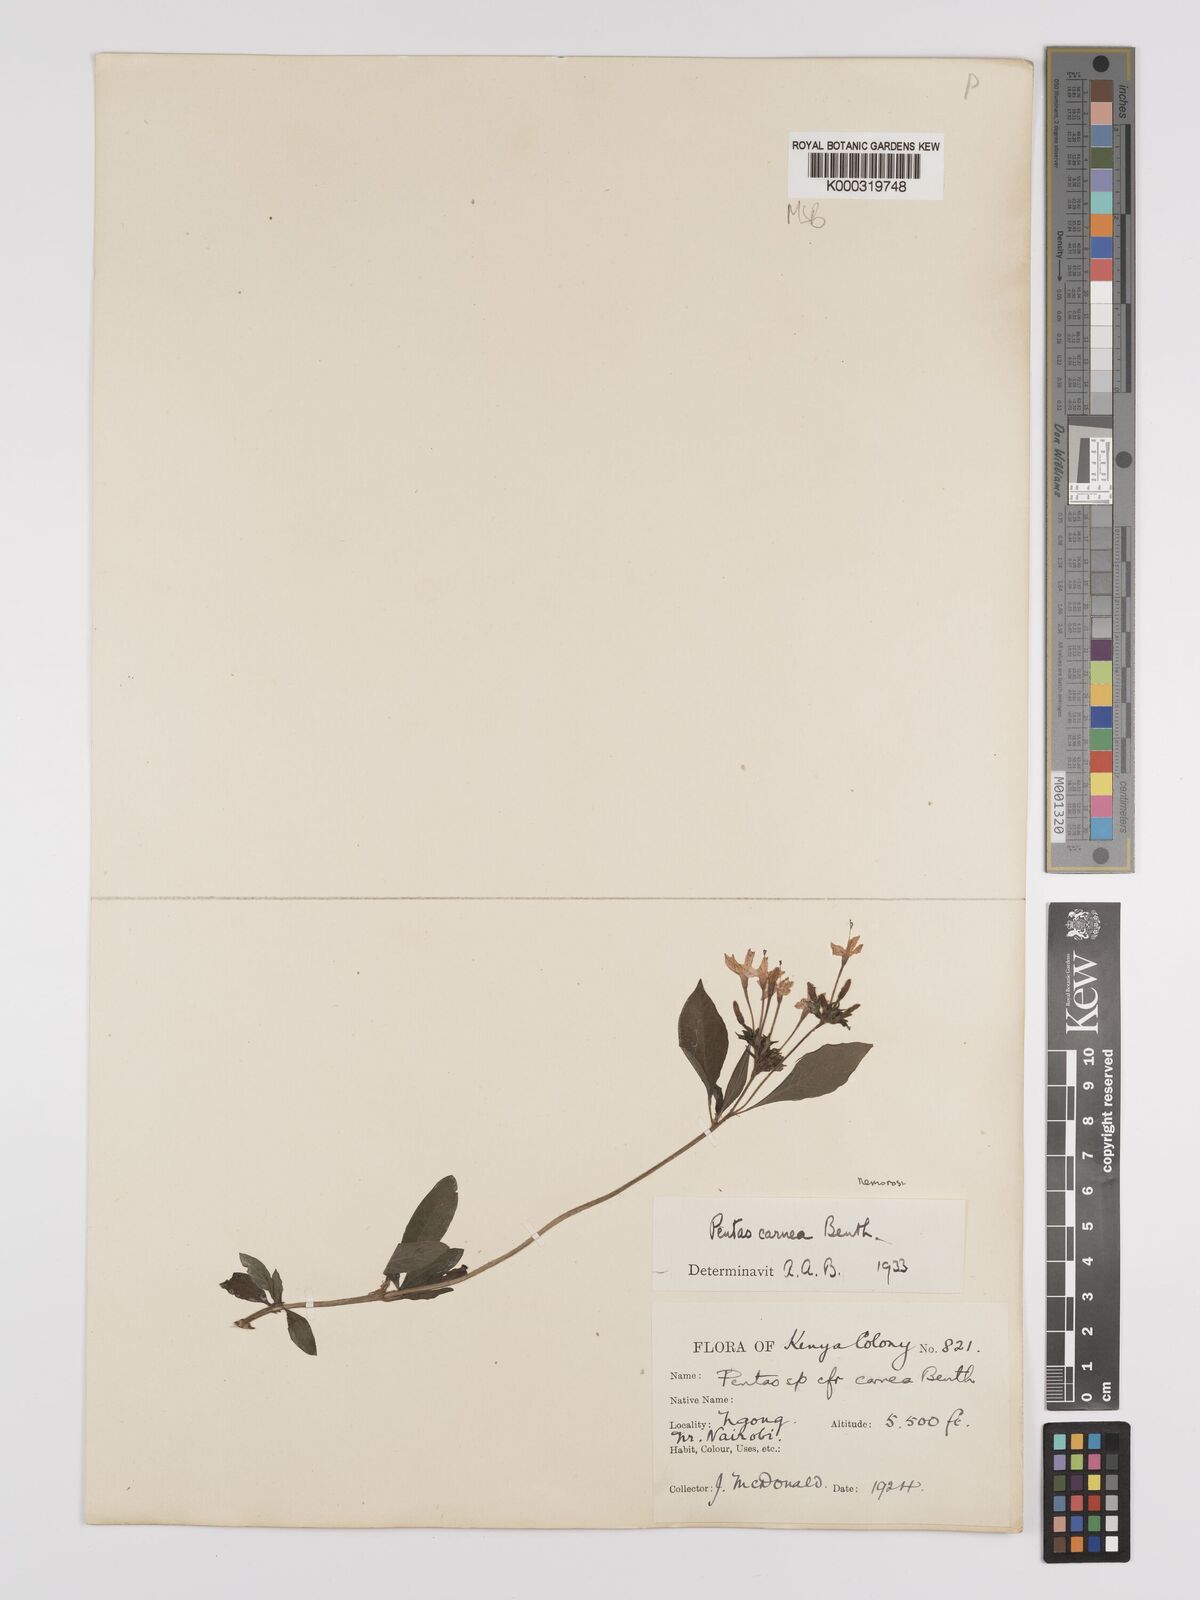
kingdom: Plantae
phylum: Tracheophyta
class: Magnoliopsida
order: Gentianales
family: Rubiaceae
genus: Pentas
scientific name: Pentas lanceolata
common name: Egyptian starcluster
